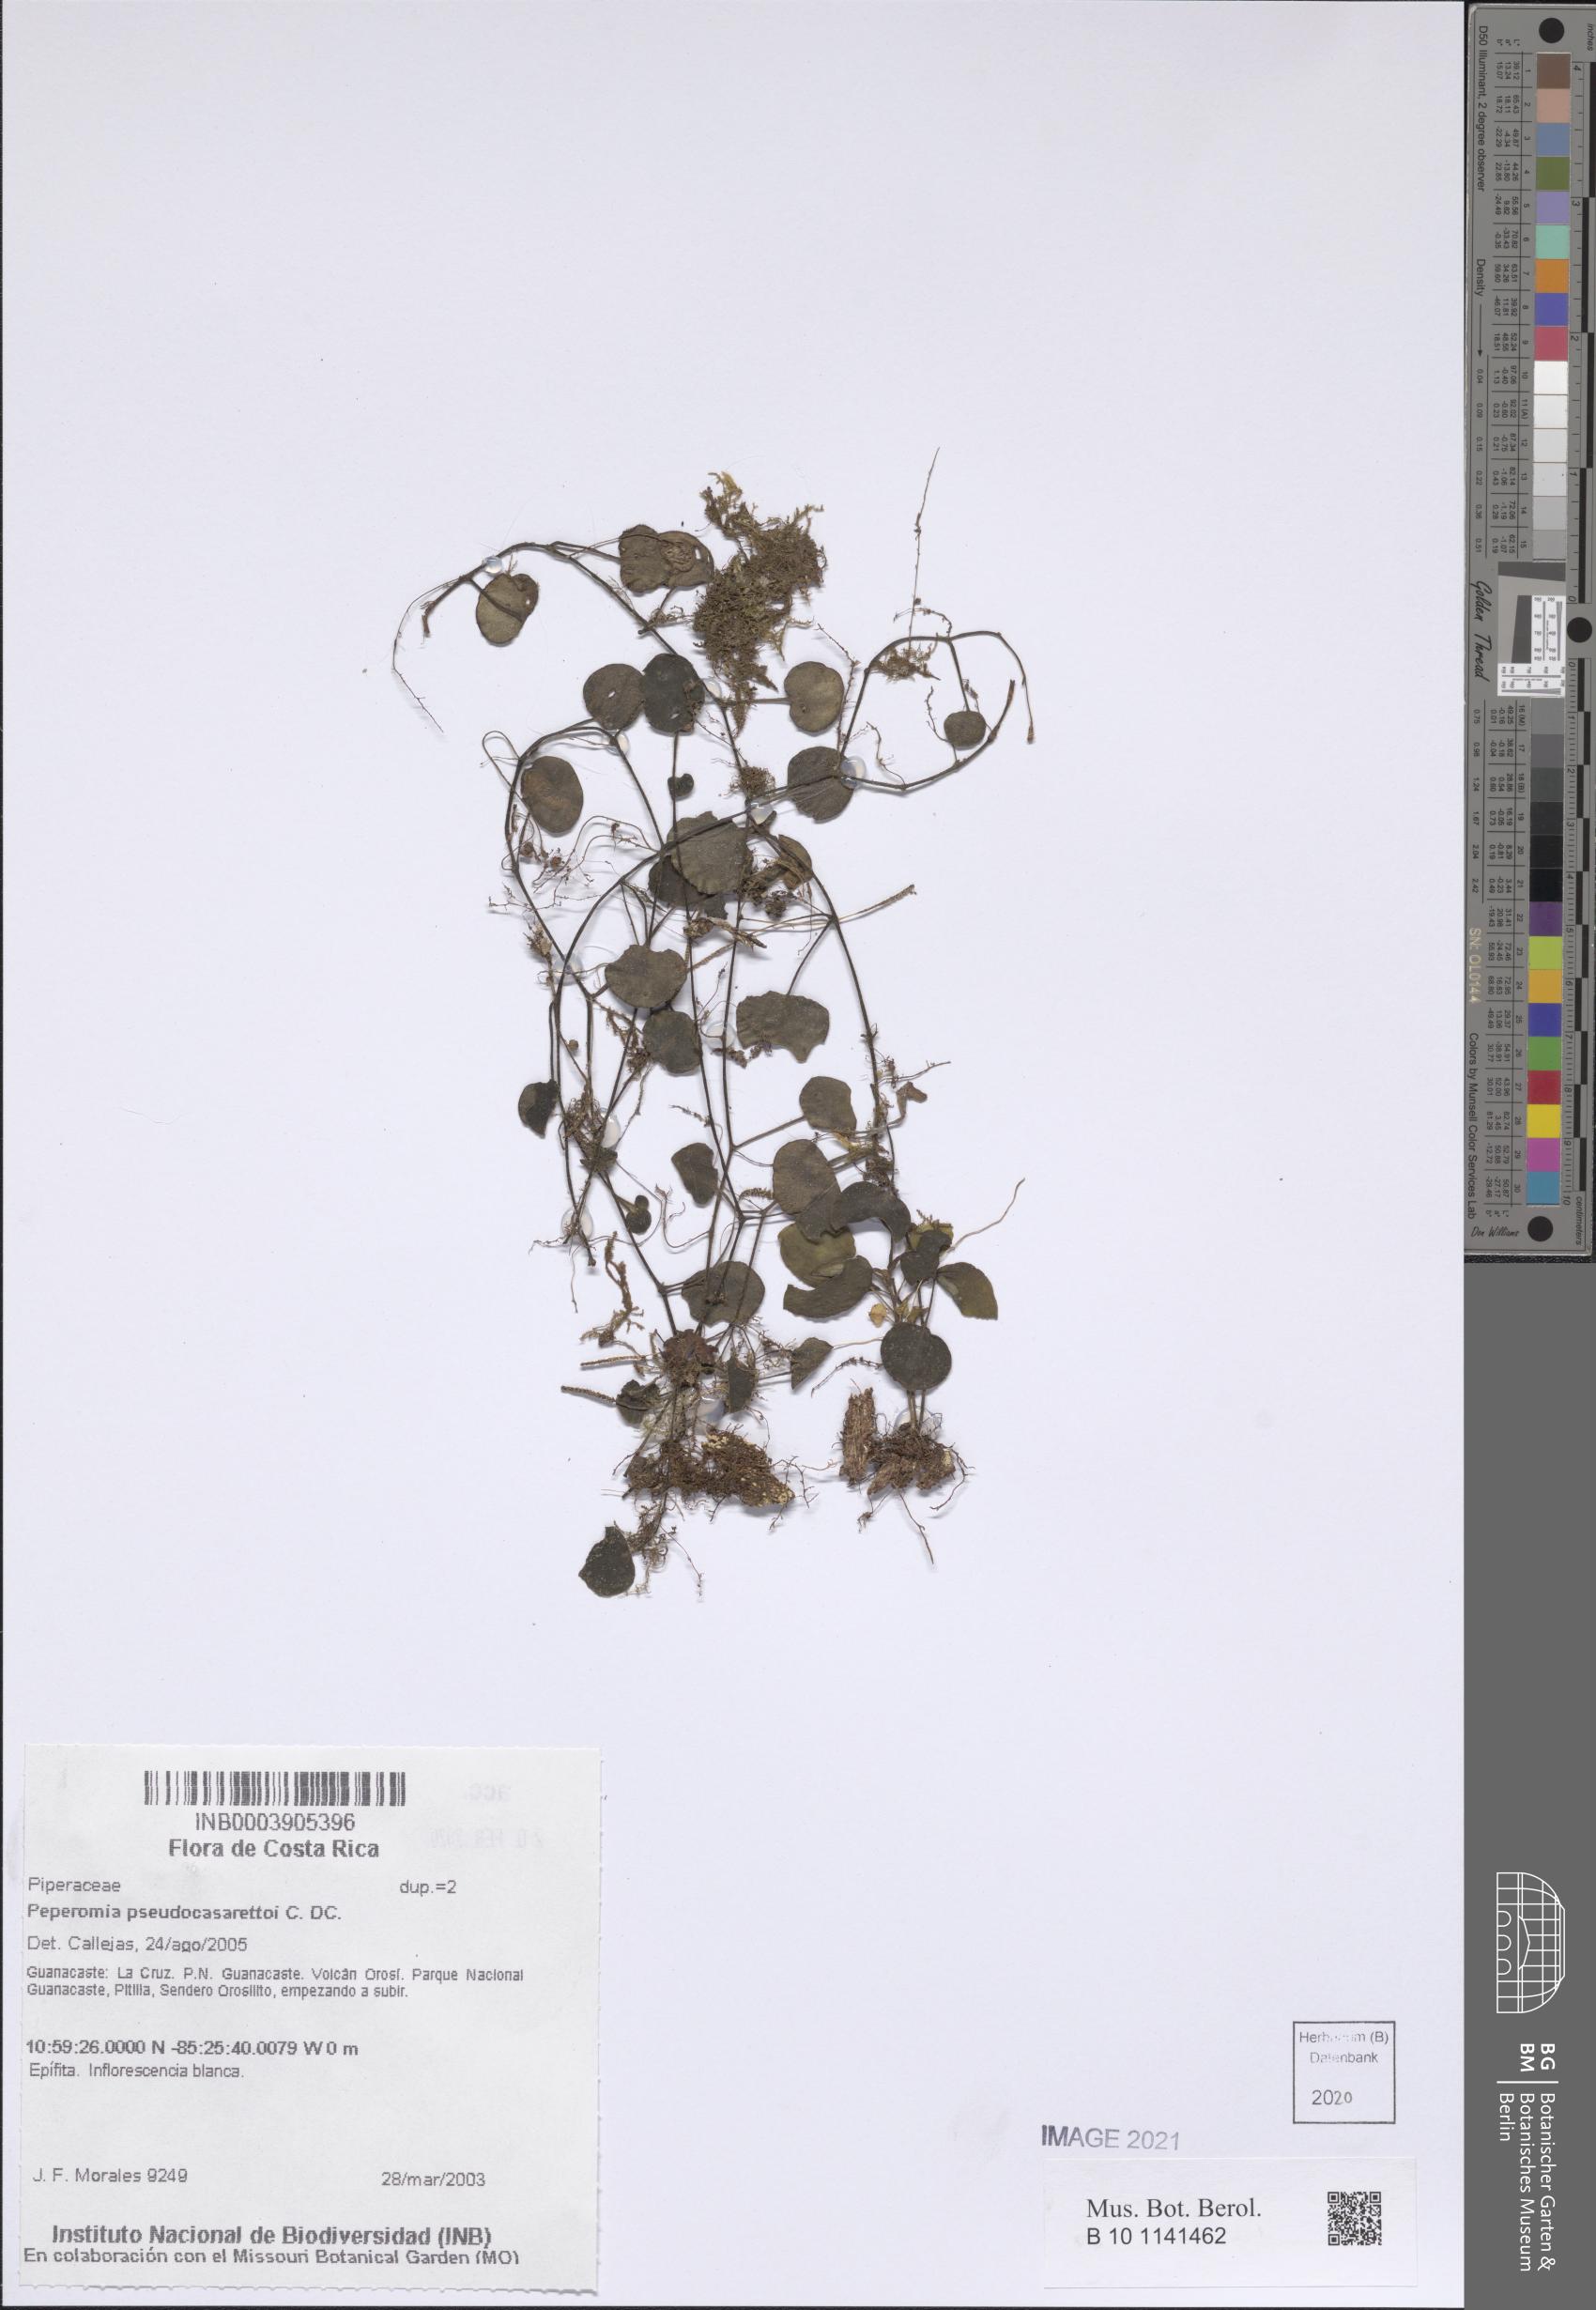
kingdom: Plantae
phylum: Tracheophyta
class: Magnoliopsida
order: Piperales
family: Piperaceae
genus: Peperomia
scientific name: Peperomia pseudocasarettoi
